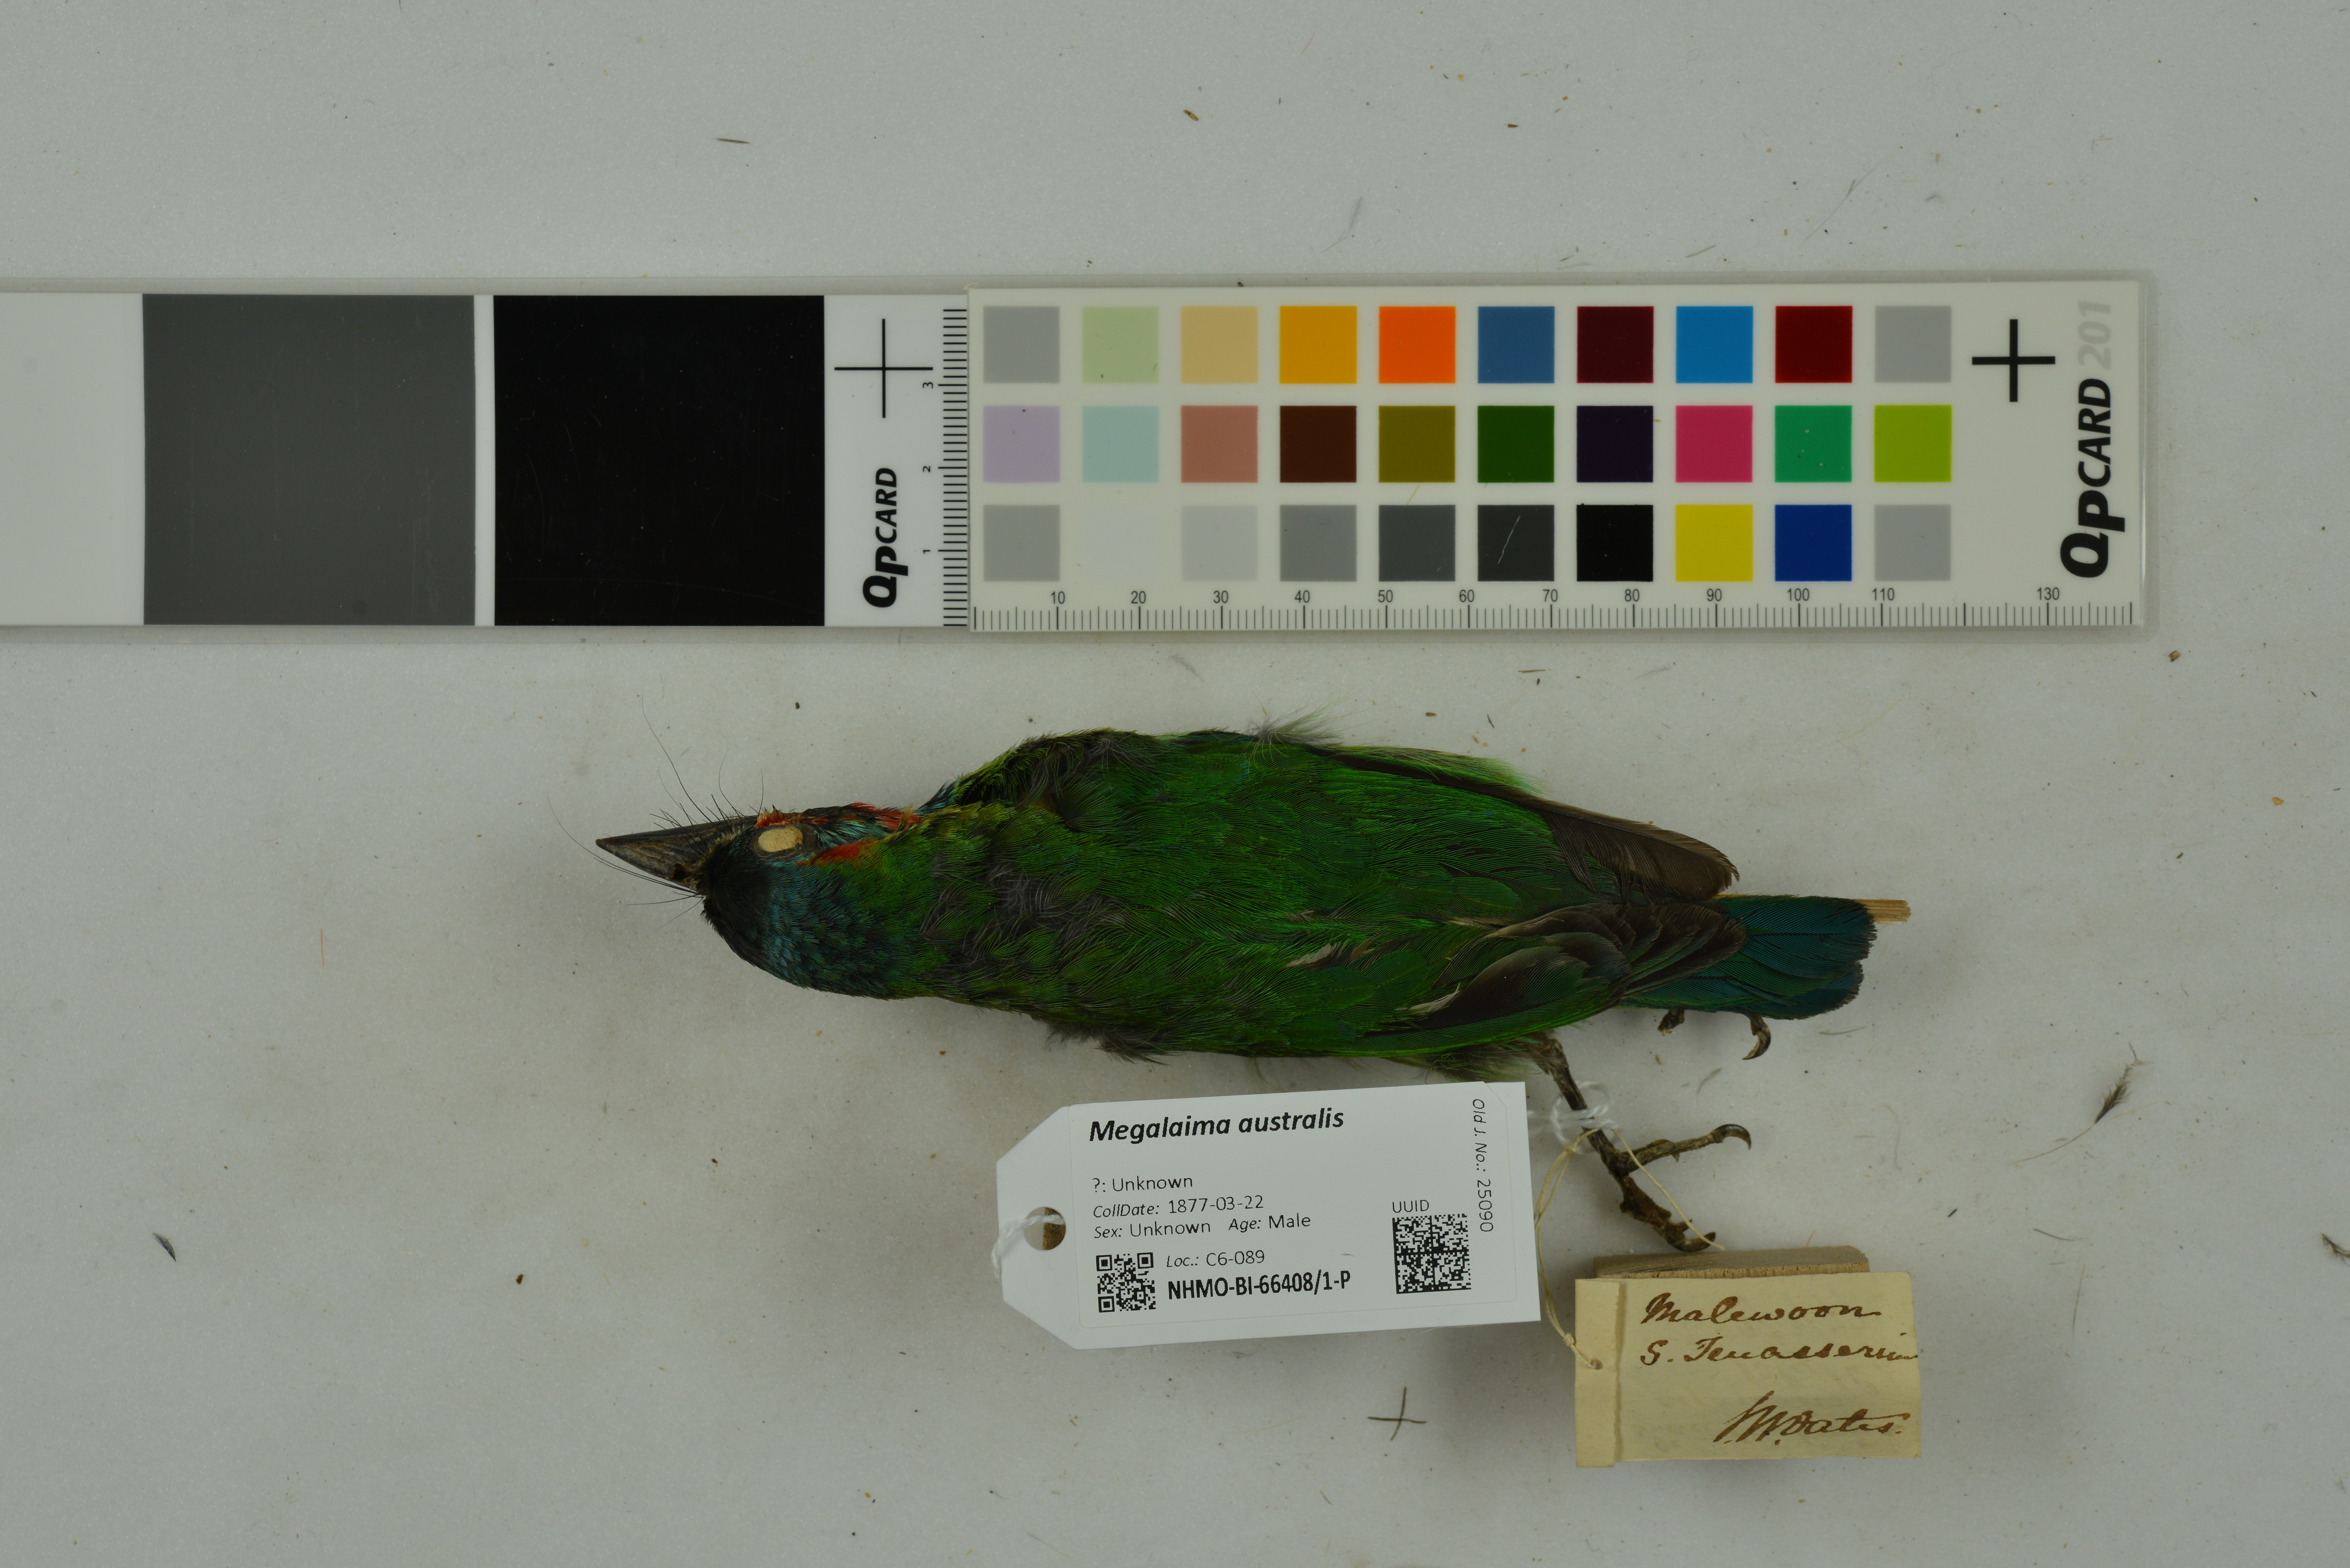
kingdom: Animalia
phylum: Chordata
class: Aves
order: Piciformes
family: Megalaimidae
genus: Psilopogon
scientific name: Psilopogon australis
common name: Yellow-eared barbet
